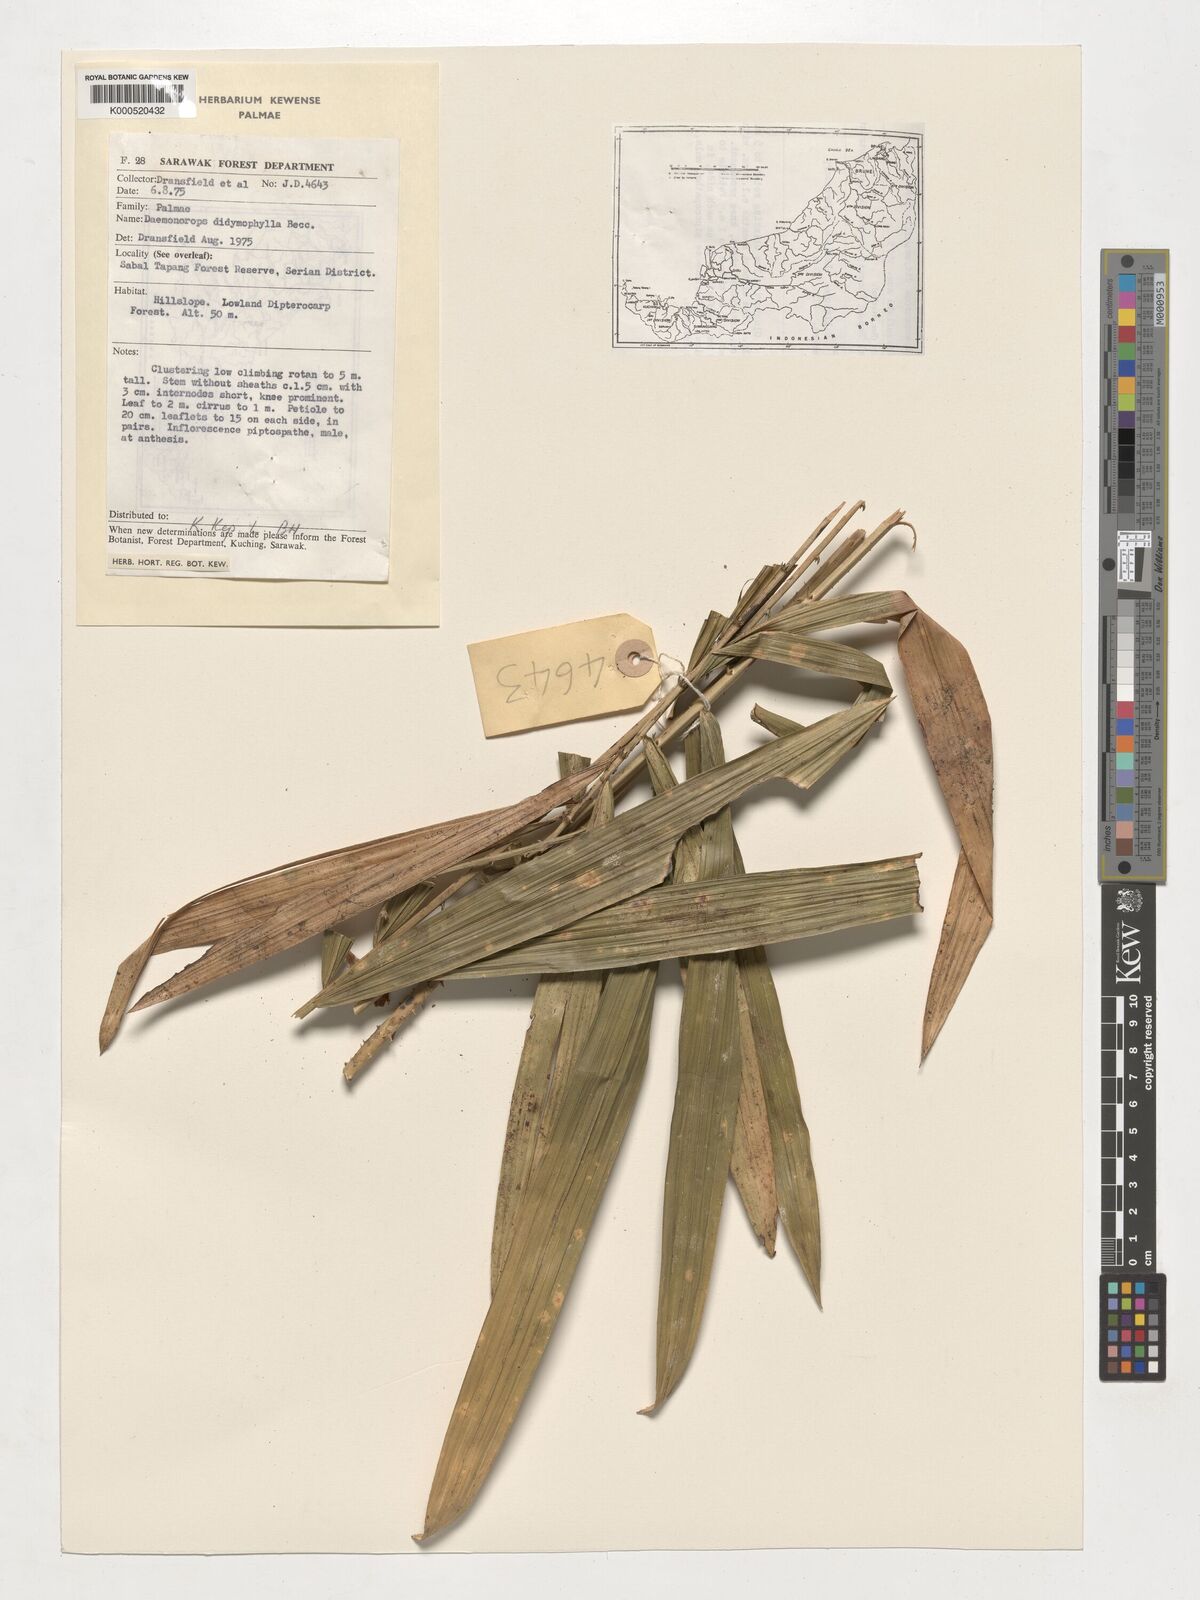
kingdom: Plantae
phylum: Tracheophyta
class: Liliopsida
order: Arecales
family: Arecaceae
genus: Calamus
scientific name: Calamus gracilipes
